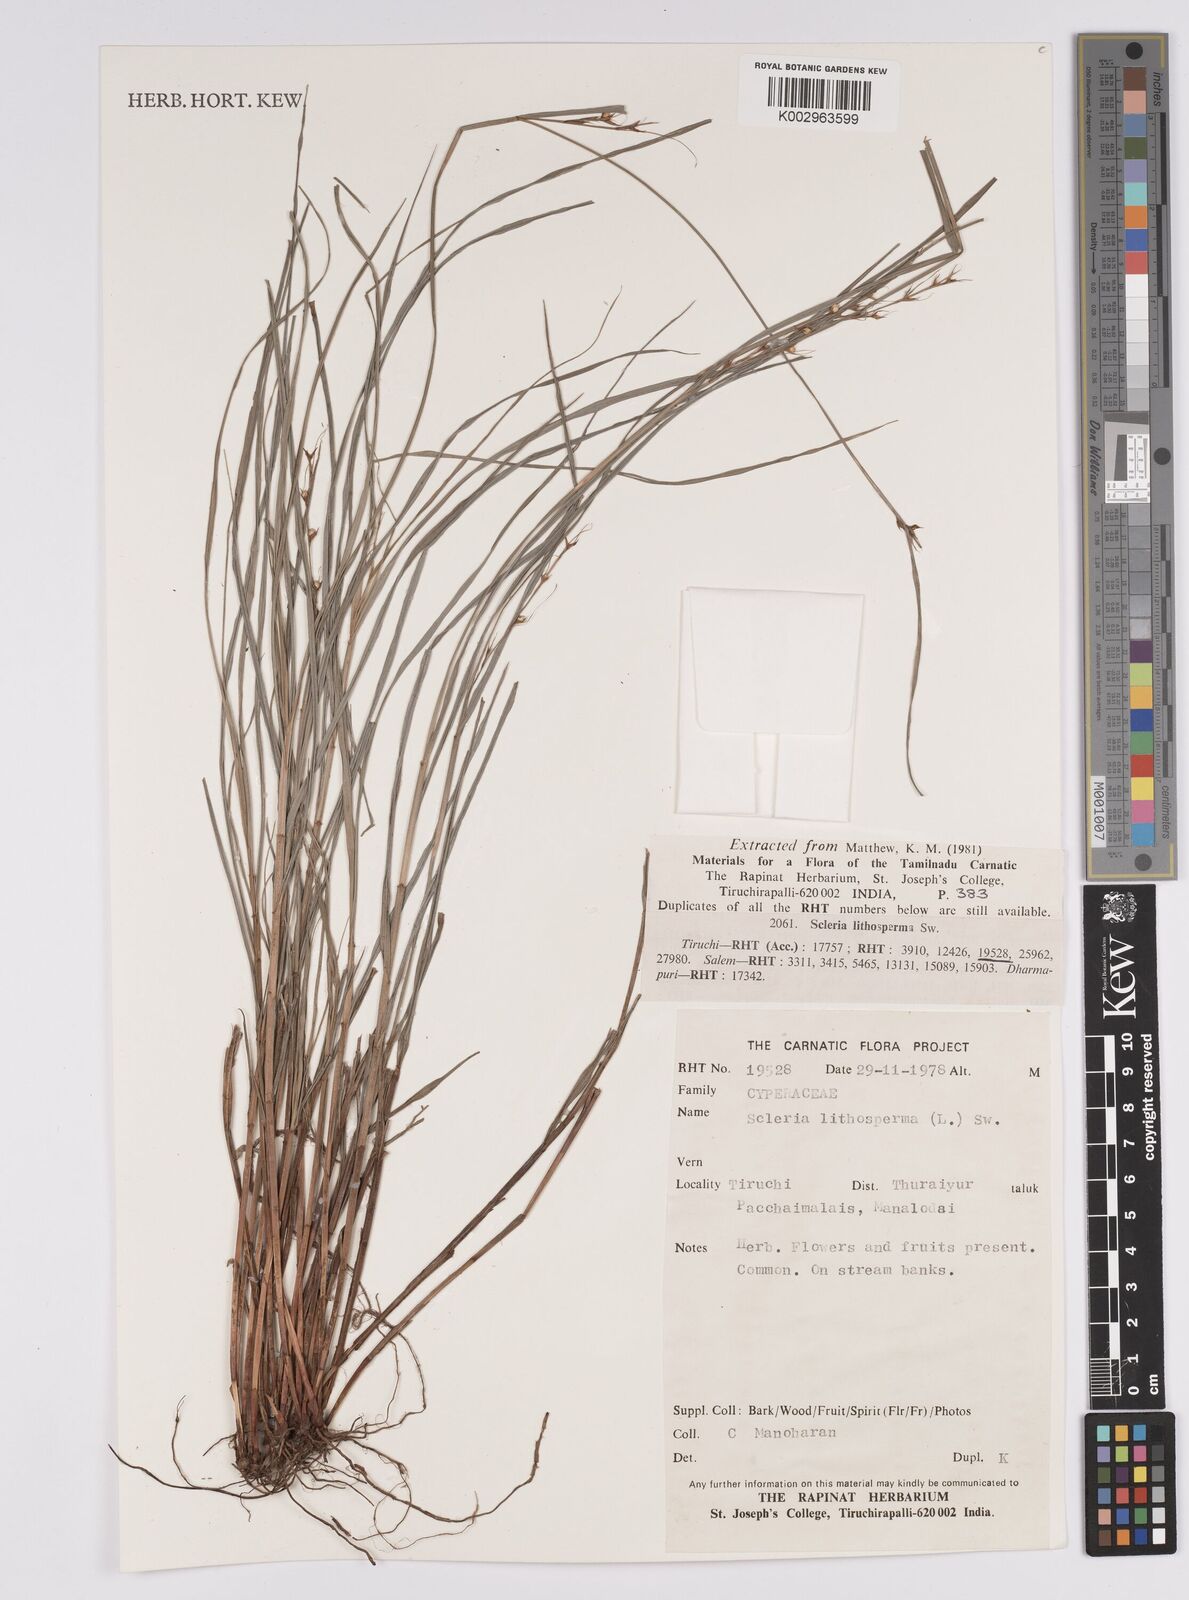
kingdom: Plantae
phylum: Tracheophyta
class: Liliopsida
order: Poales
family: Cyperaceae
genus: Scleria
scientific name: Scleria lithosperma
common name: Florida keys nut-rush
